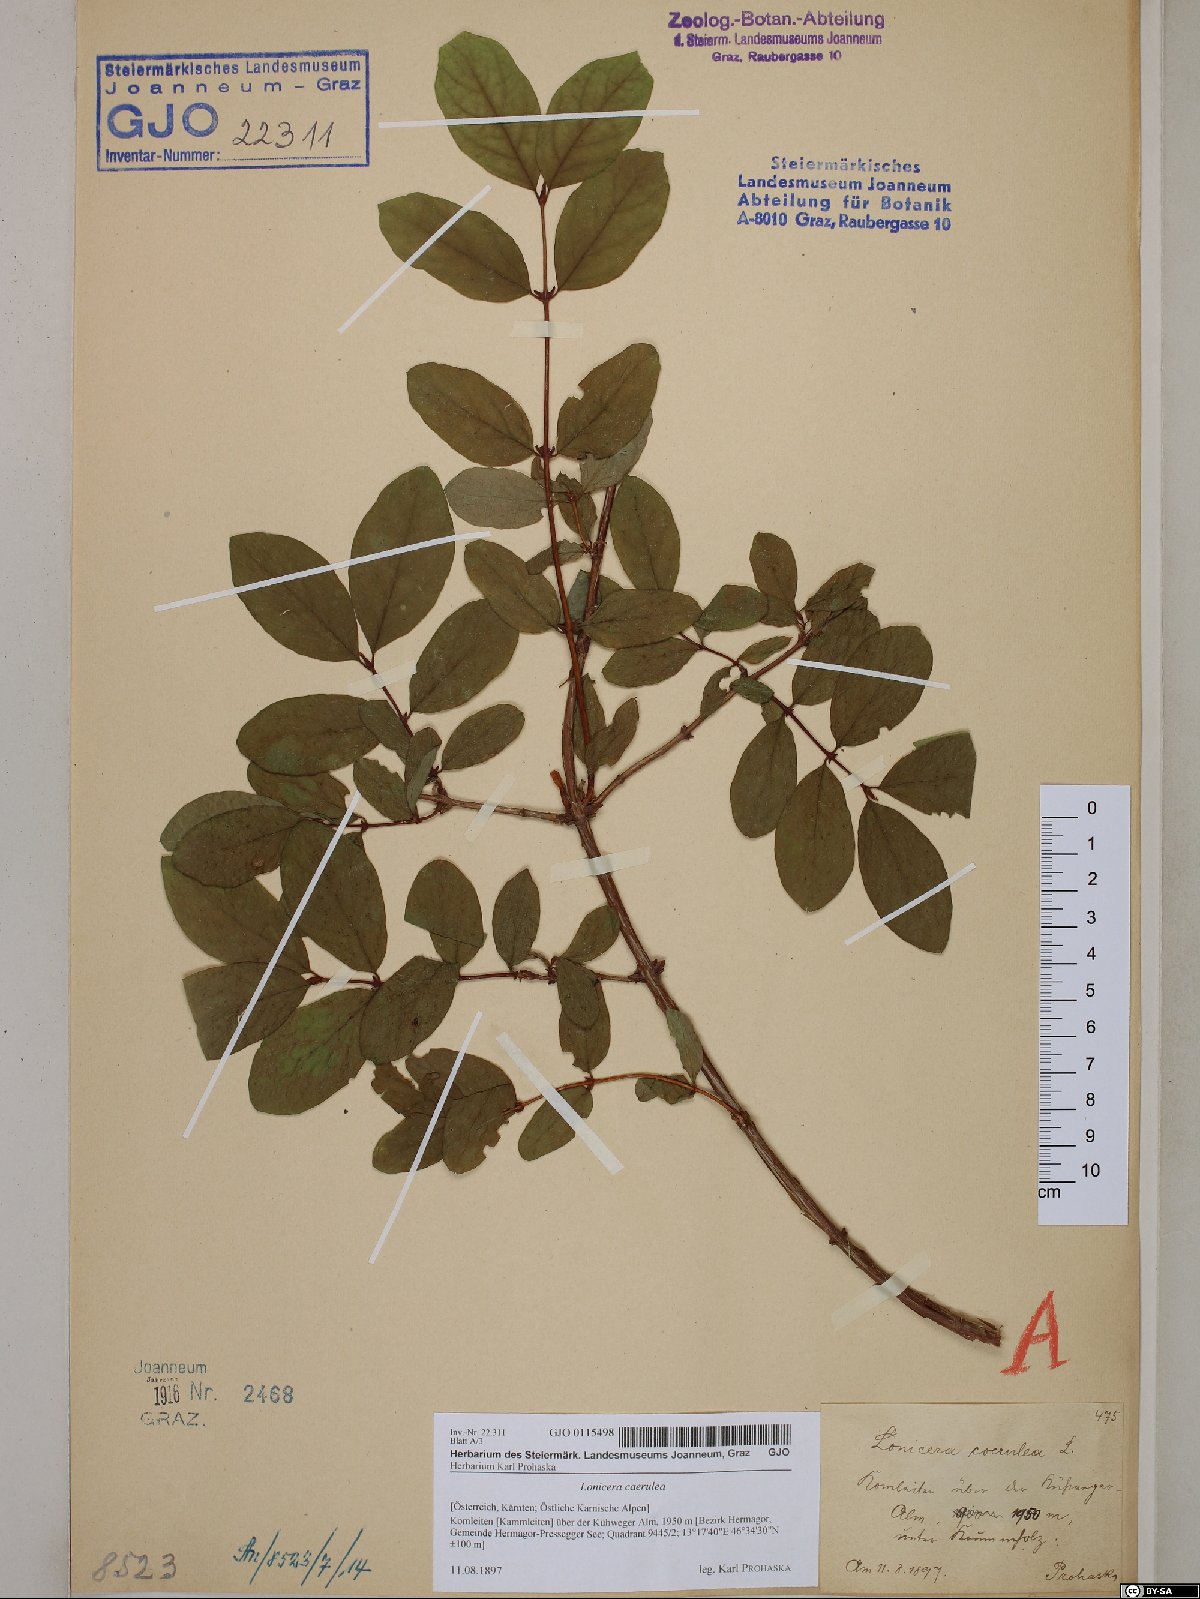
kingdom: Plantae
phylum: Tracheophyta
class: Magnoliopsida
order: Dipsacales
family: Caprifoliaceae
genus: Lonicera
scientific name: Lonicera caerulea
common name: Blue honeysuckle
